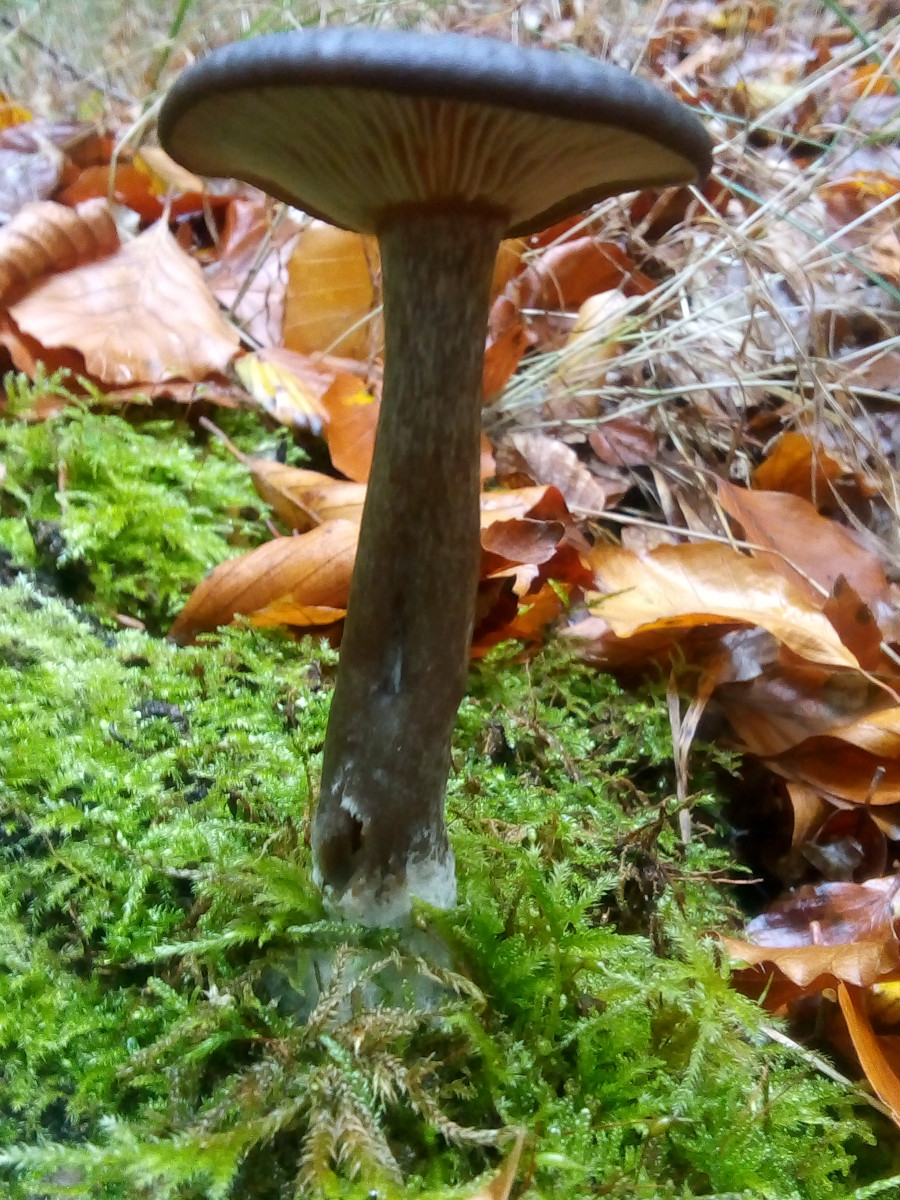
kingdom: Fungi
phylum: Basidiomycota
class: Agaricomycetes
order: Agaricales
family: Pseudoclitocybaceae
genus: Pseudoclitocybe
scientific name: Pseudoclitocybe cyathiformis
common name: almindelig bægertragthat
